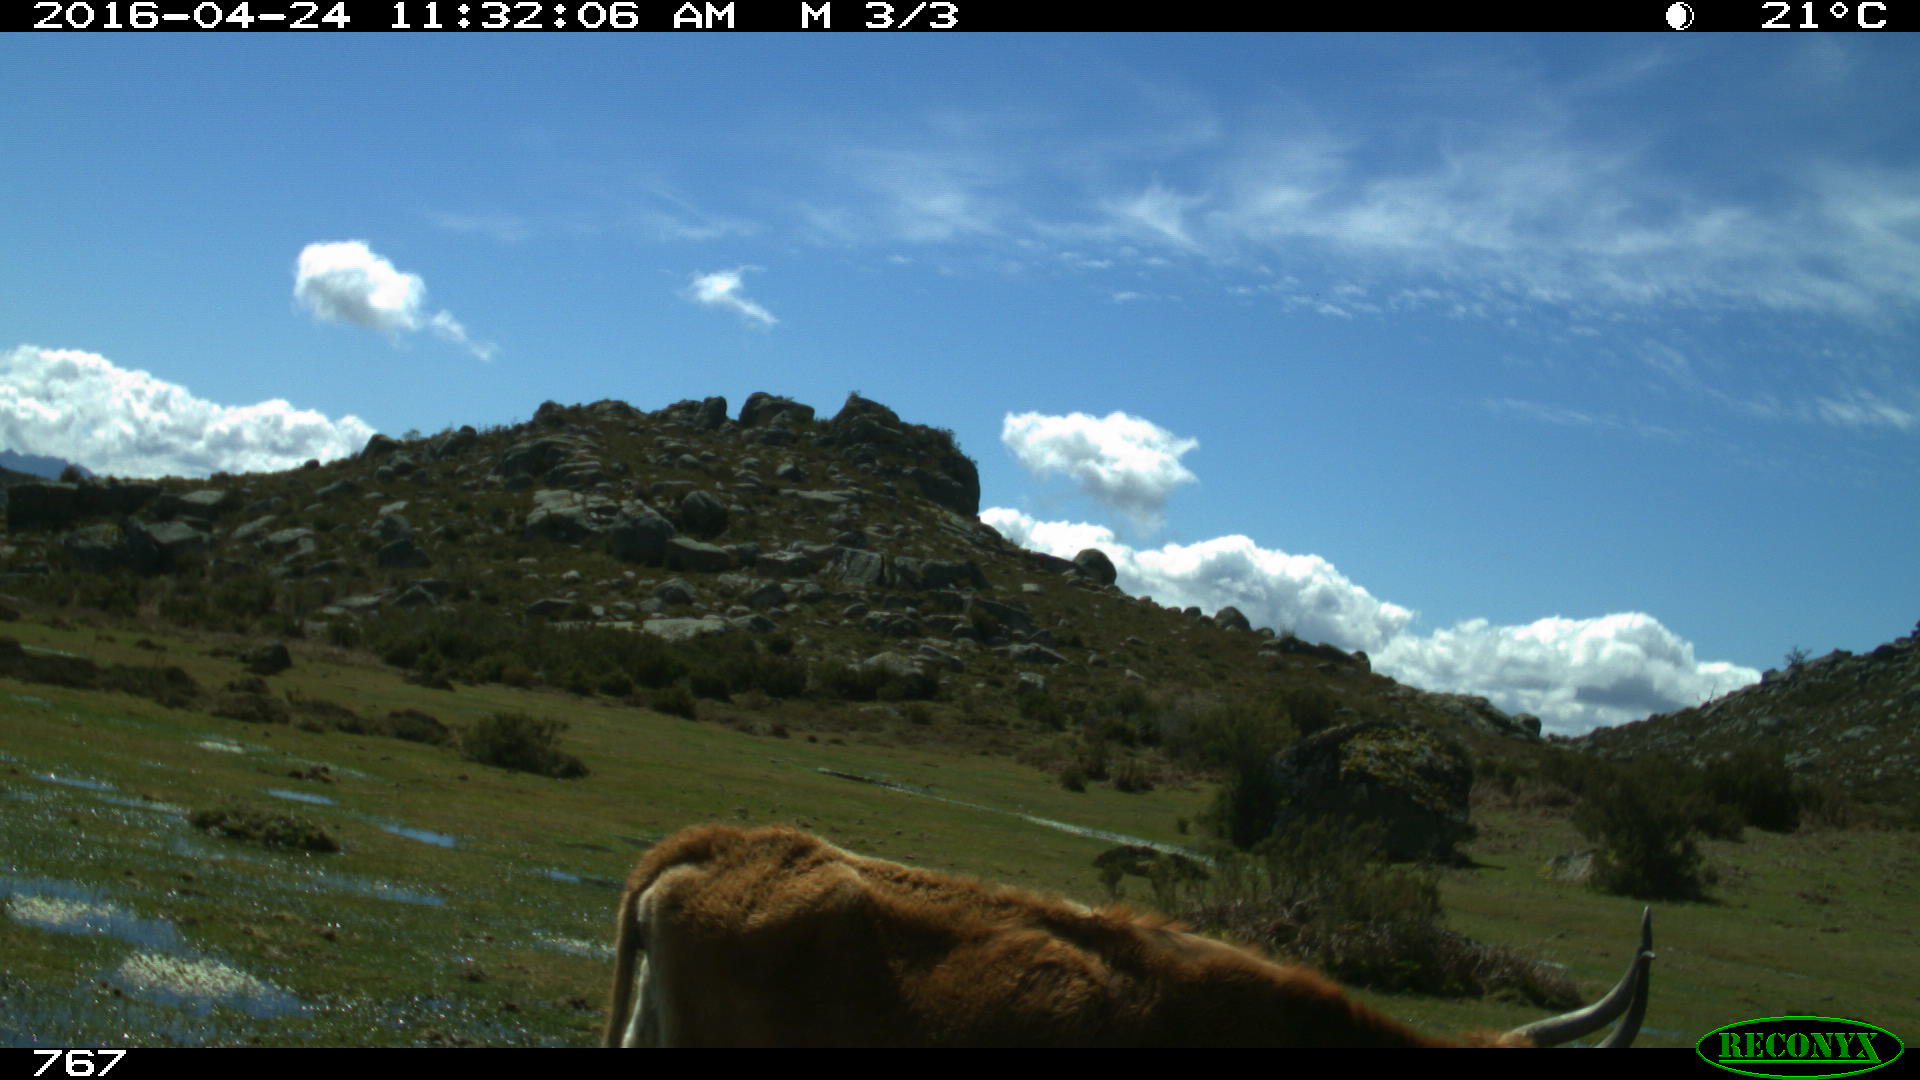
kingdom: Animalia
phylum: Chordata
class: Mammalia
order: Artiodactyla
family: Bovidae
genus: Bos
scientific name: Bos taurus
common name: Domesticated cattle
